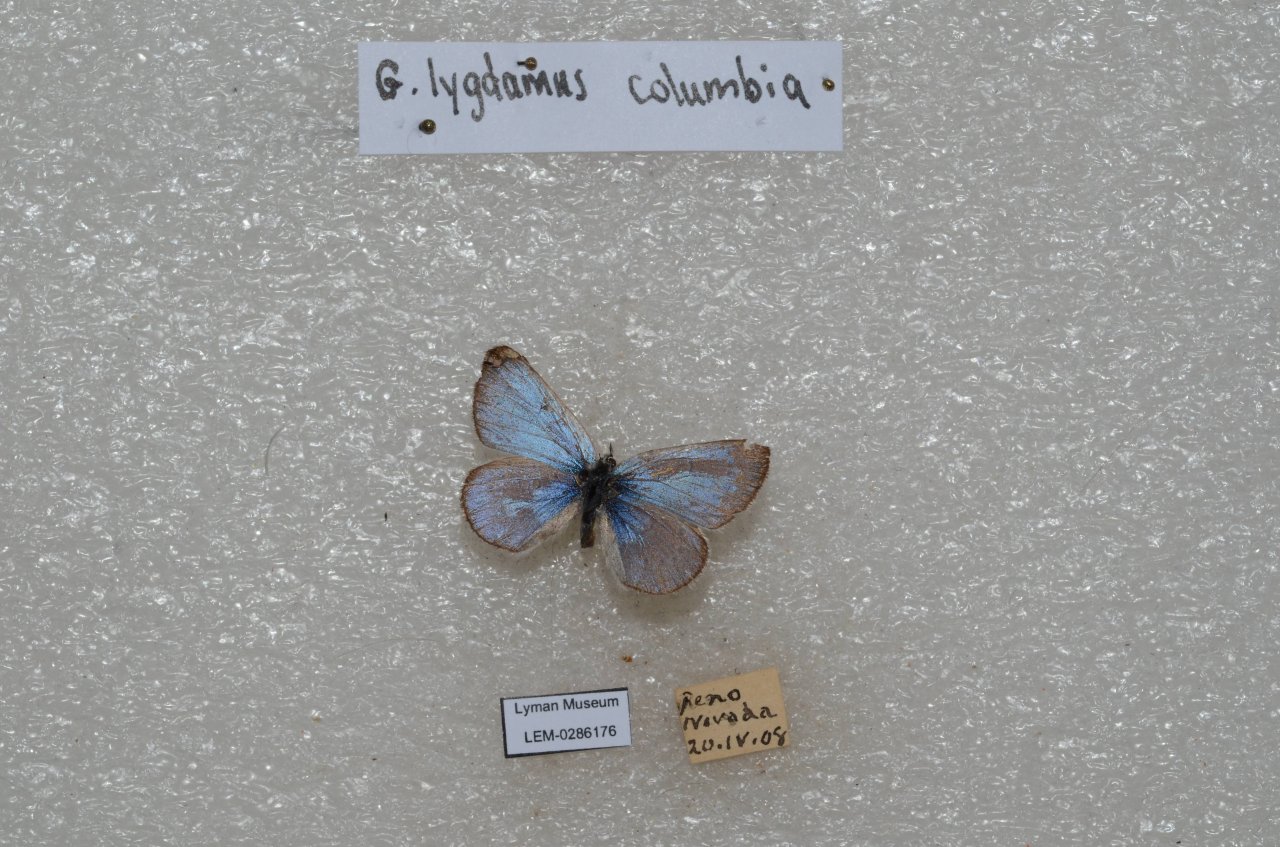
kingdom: Animalia
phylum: Arthropoda
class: Insecta
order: Lepidoptera
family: Lycaenidae
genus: Glaucopsyche
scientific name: Glaucopsyche lygdamus
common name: Silvery Blue
